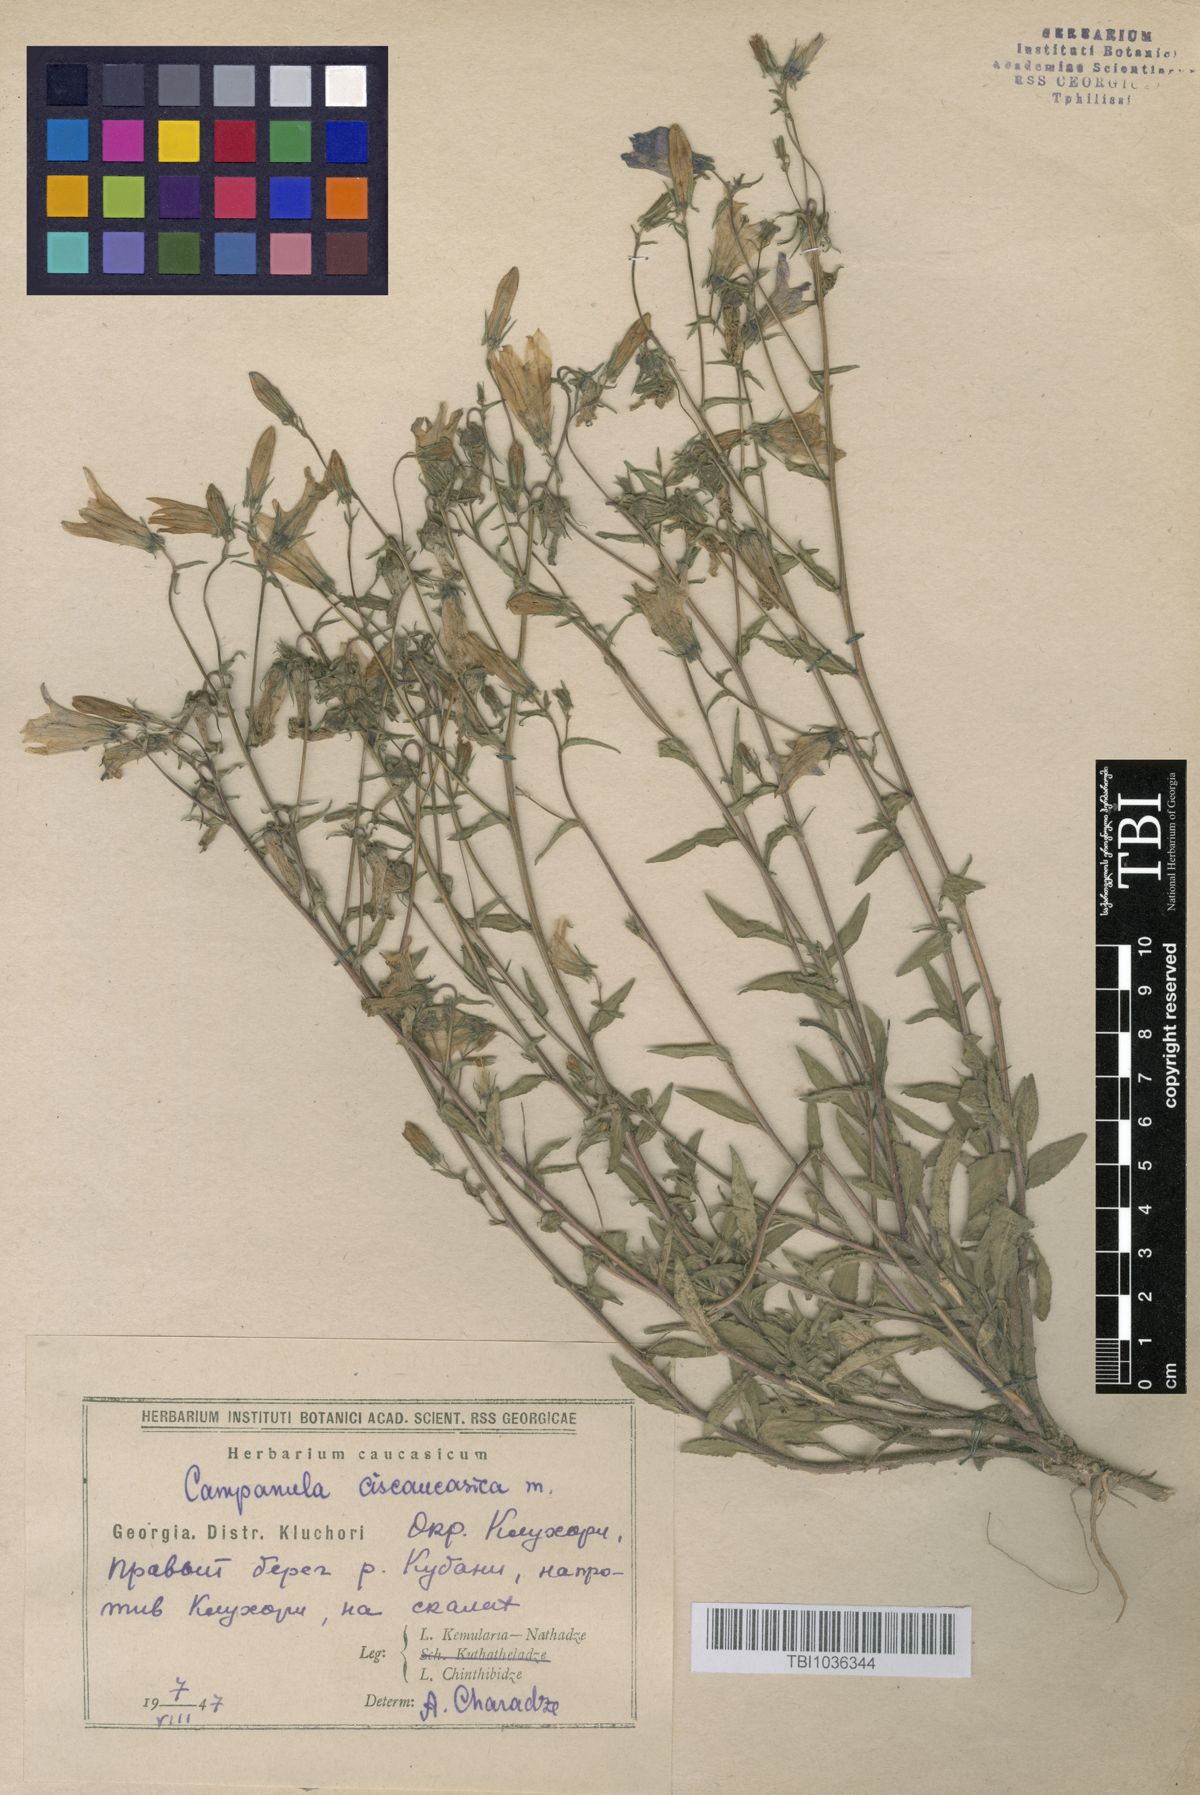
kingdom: Plantae
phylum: Tracheophyta
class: Magnoliopsida
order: Asterales
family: Campanulaceae
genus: Campanula
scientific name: Campanula sibirica
